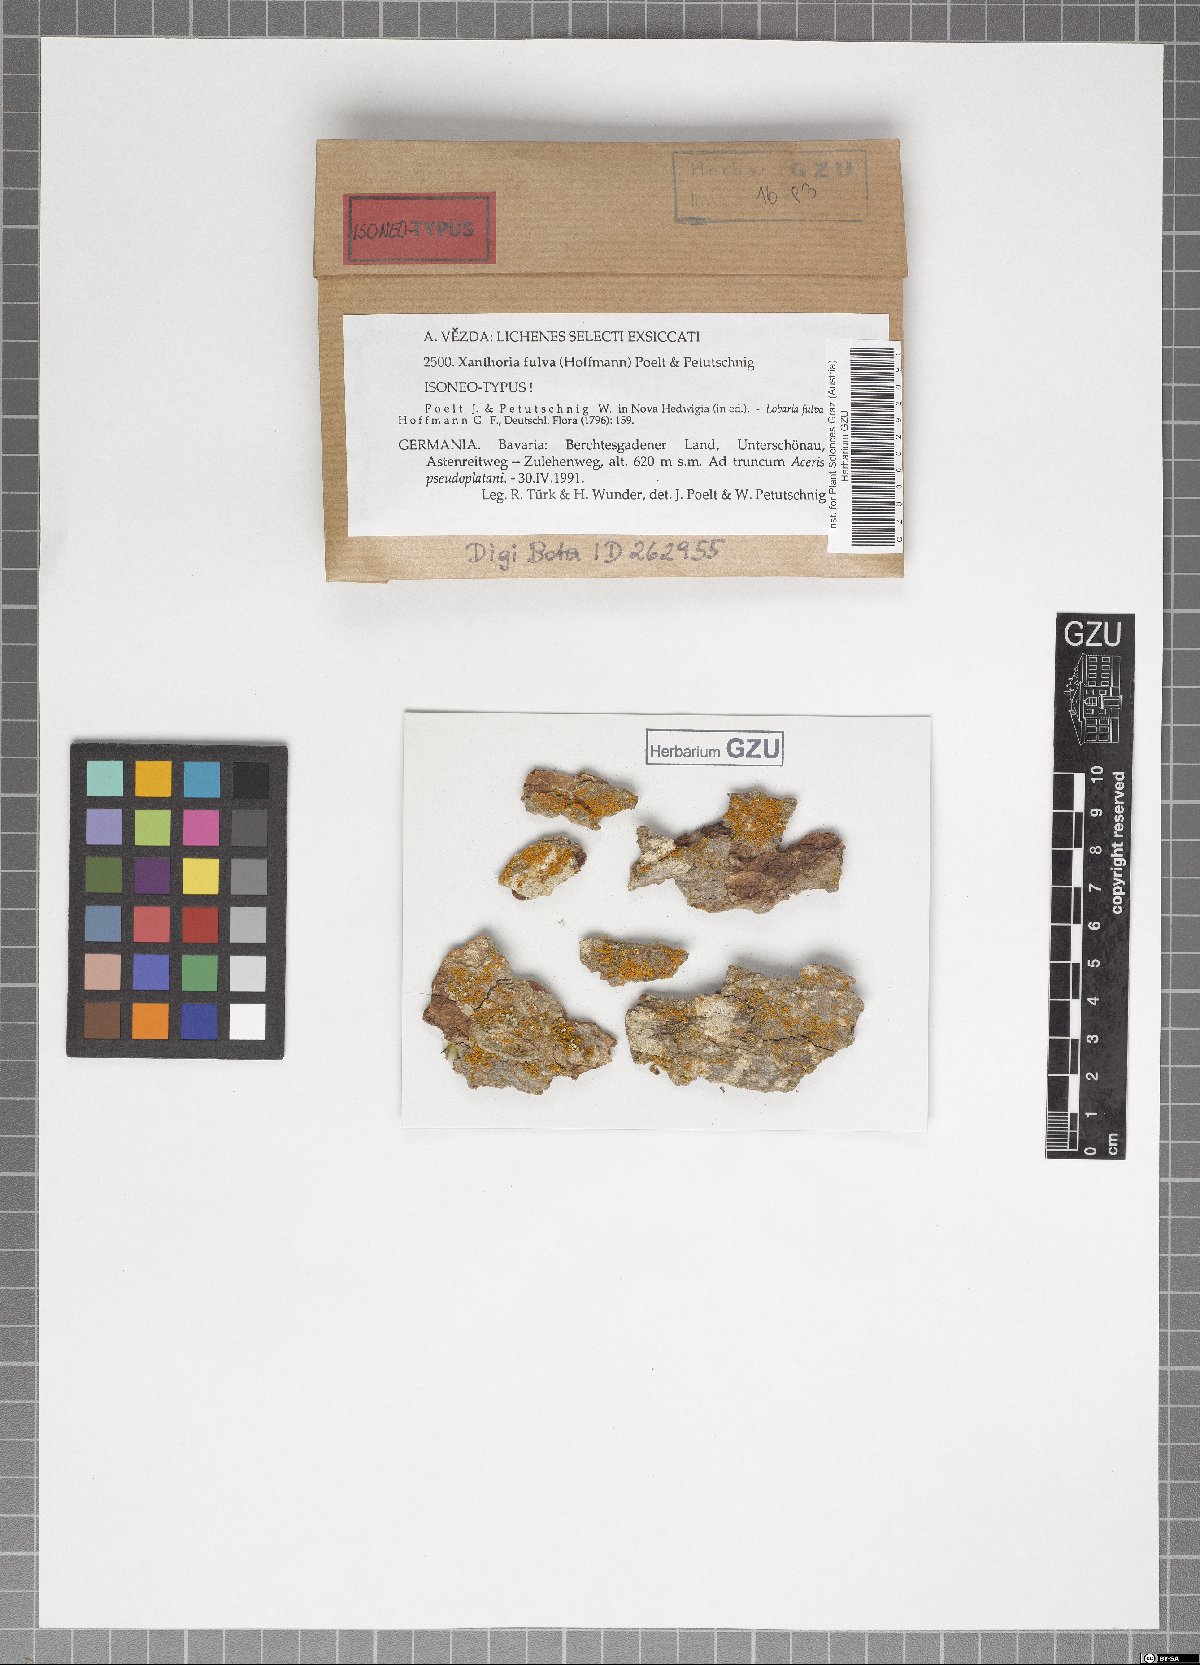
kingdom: Fungi
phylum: Ascomycota
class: Lecanoromycetes
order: Teloschistales
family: Teloschistaceae
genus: Gallowayella
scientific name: Gallowayella fulva
